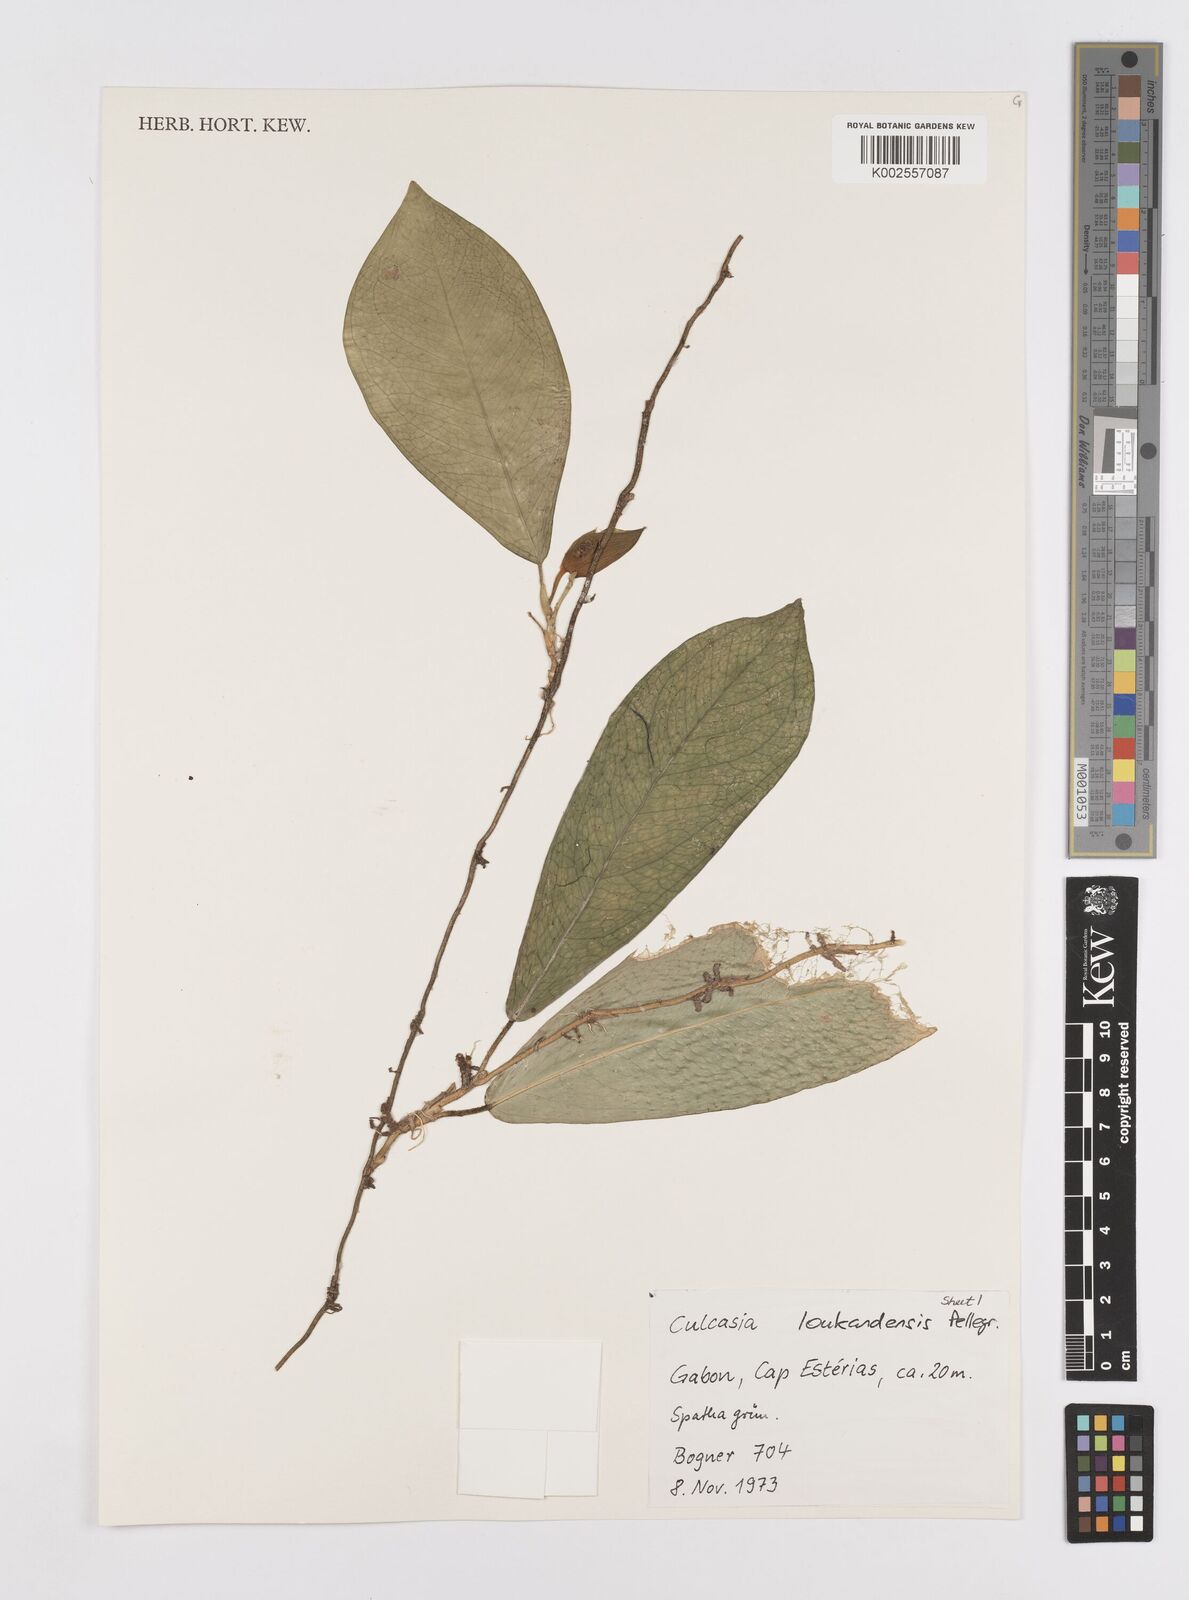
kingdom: Plantae
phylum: Tracheophyta
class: Liliopsida
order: Alismatales
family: Araceae
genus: Culcasia
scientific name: Culcasia loukandensis
